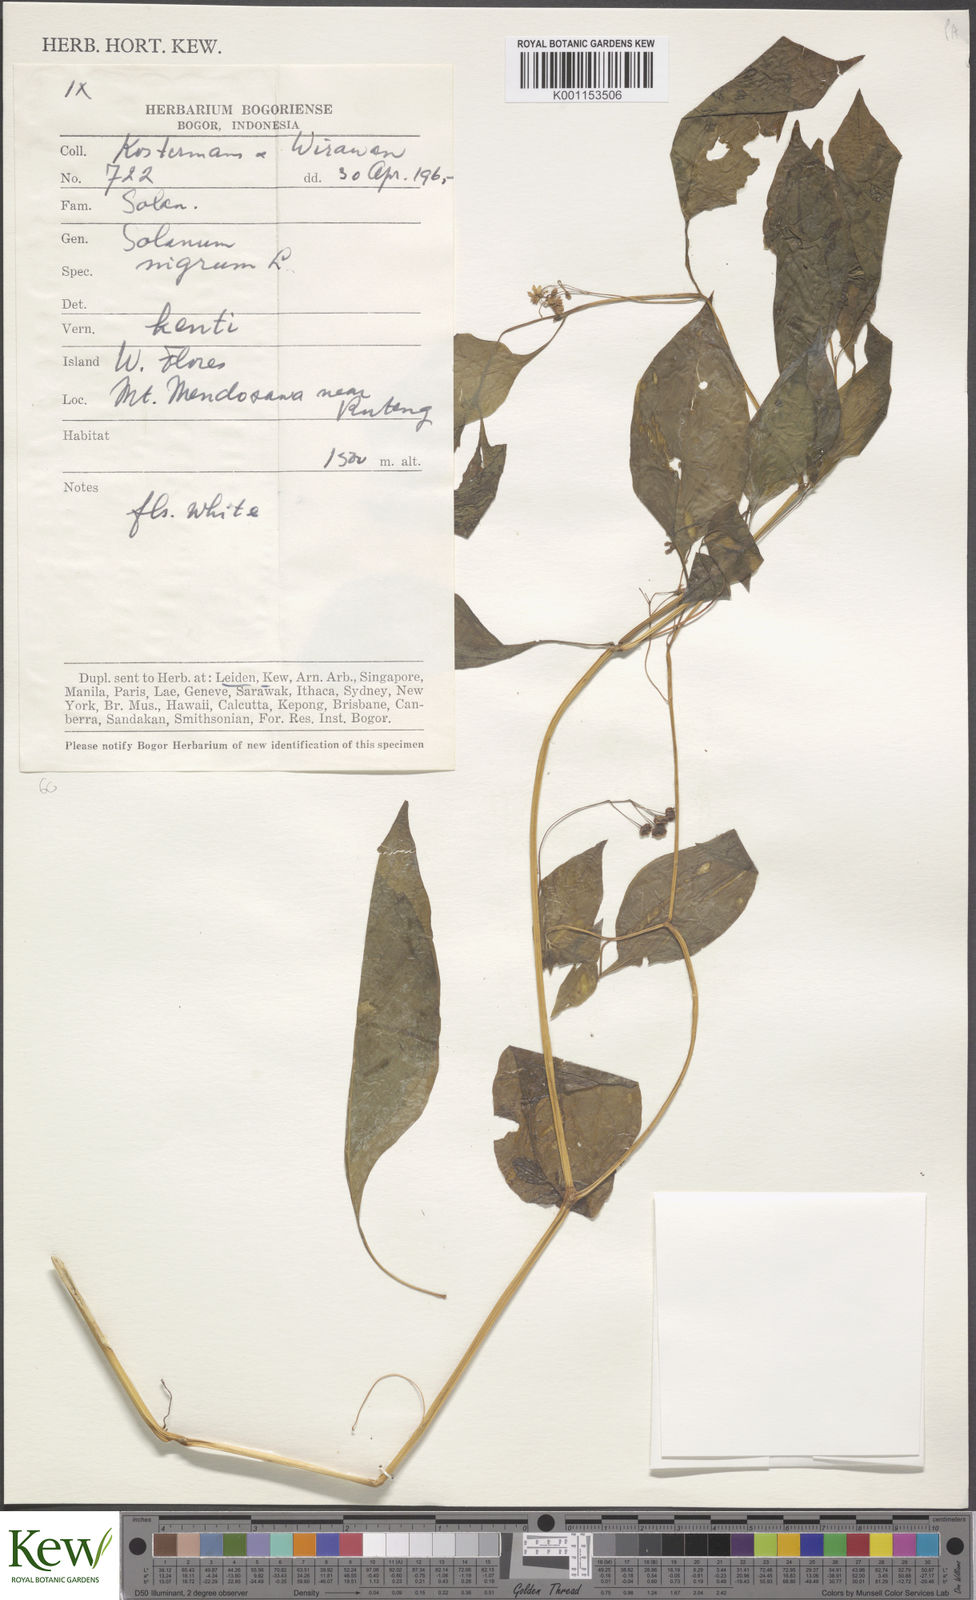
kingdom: Plantae
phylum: Tracheophyta
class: Magnoliopsida
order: Solanales
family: Solanaceae
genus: Solanum
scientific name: Solanum nigrum
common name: Black nightshade
